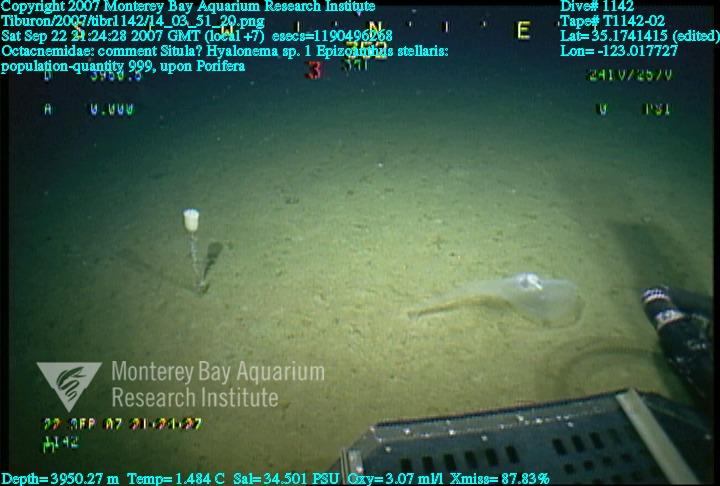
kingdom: Animalia
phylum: Porifera
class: Hexactinellida
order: Amphidiscosida
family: Hyalonematidae
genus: Hyalonema
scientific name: Hyalonema
